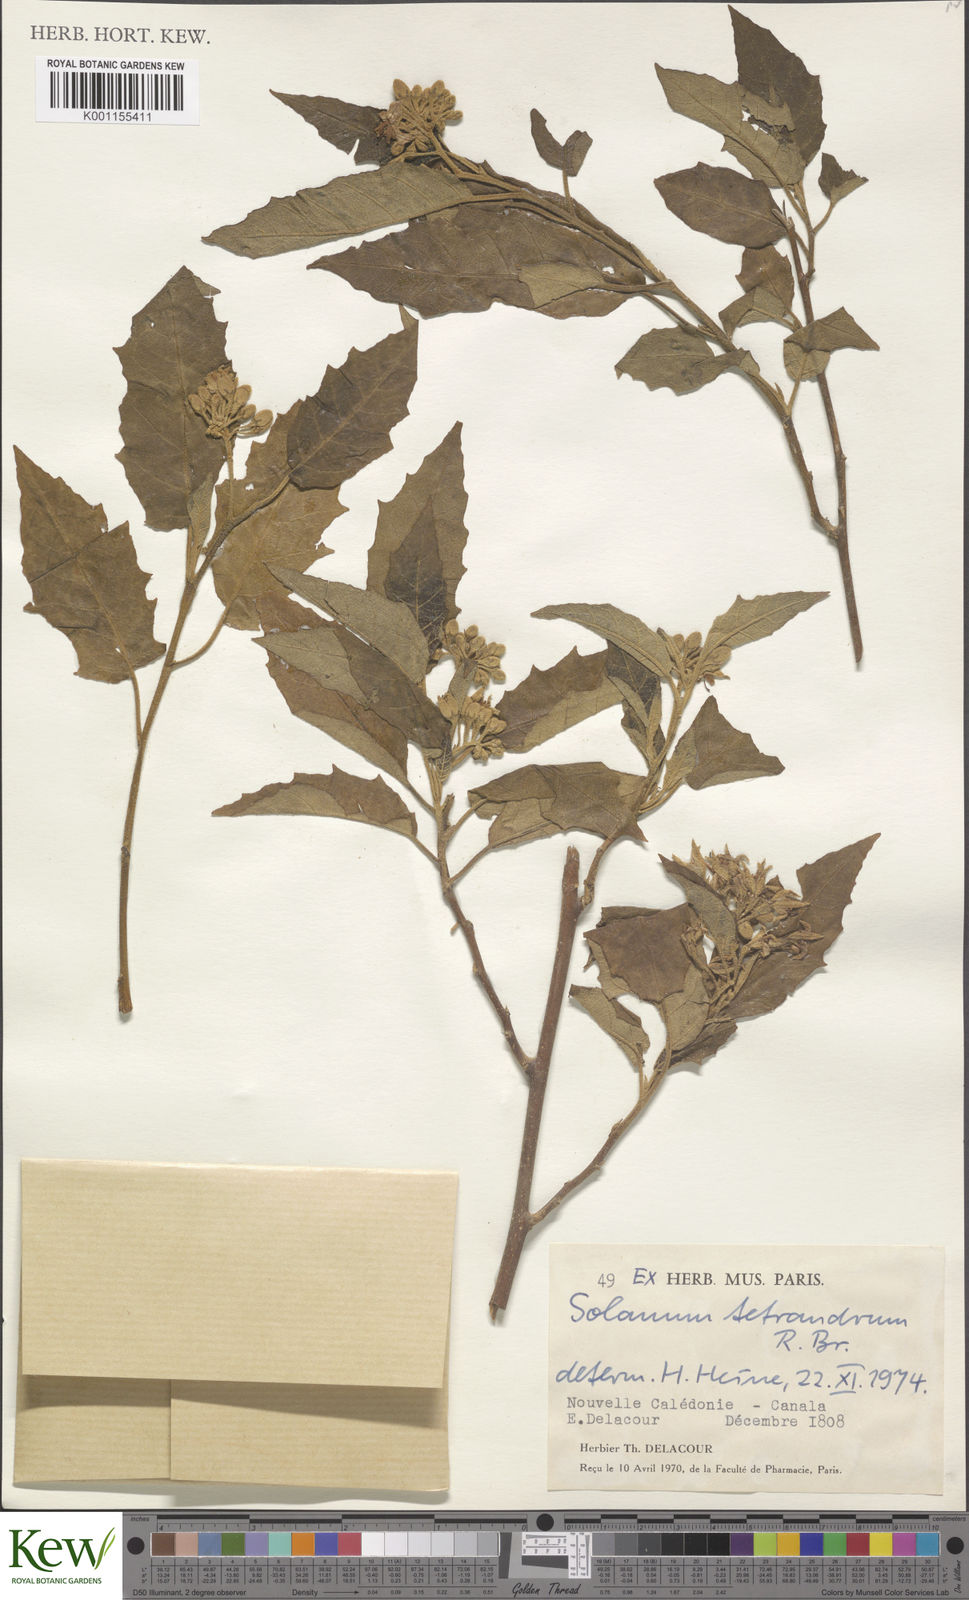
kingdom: Plantae
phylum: Tracheophyta
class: Magnoliopsida
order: Solanales
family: Solanaceae
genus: Solanum
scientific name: Solanum tetrandrum
